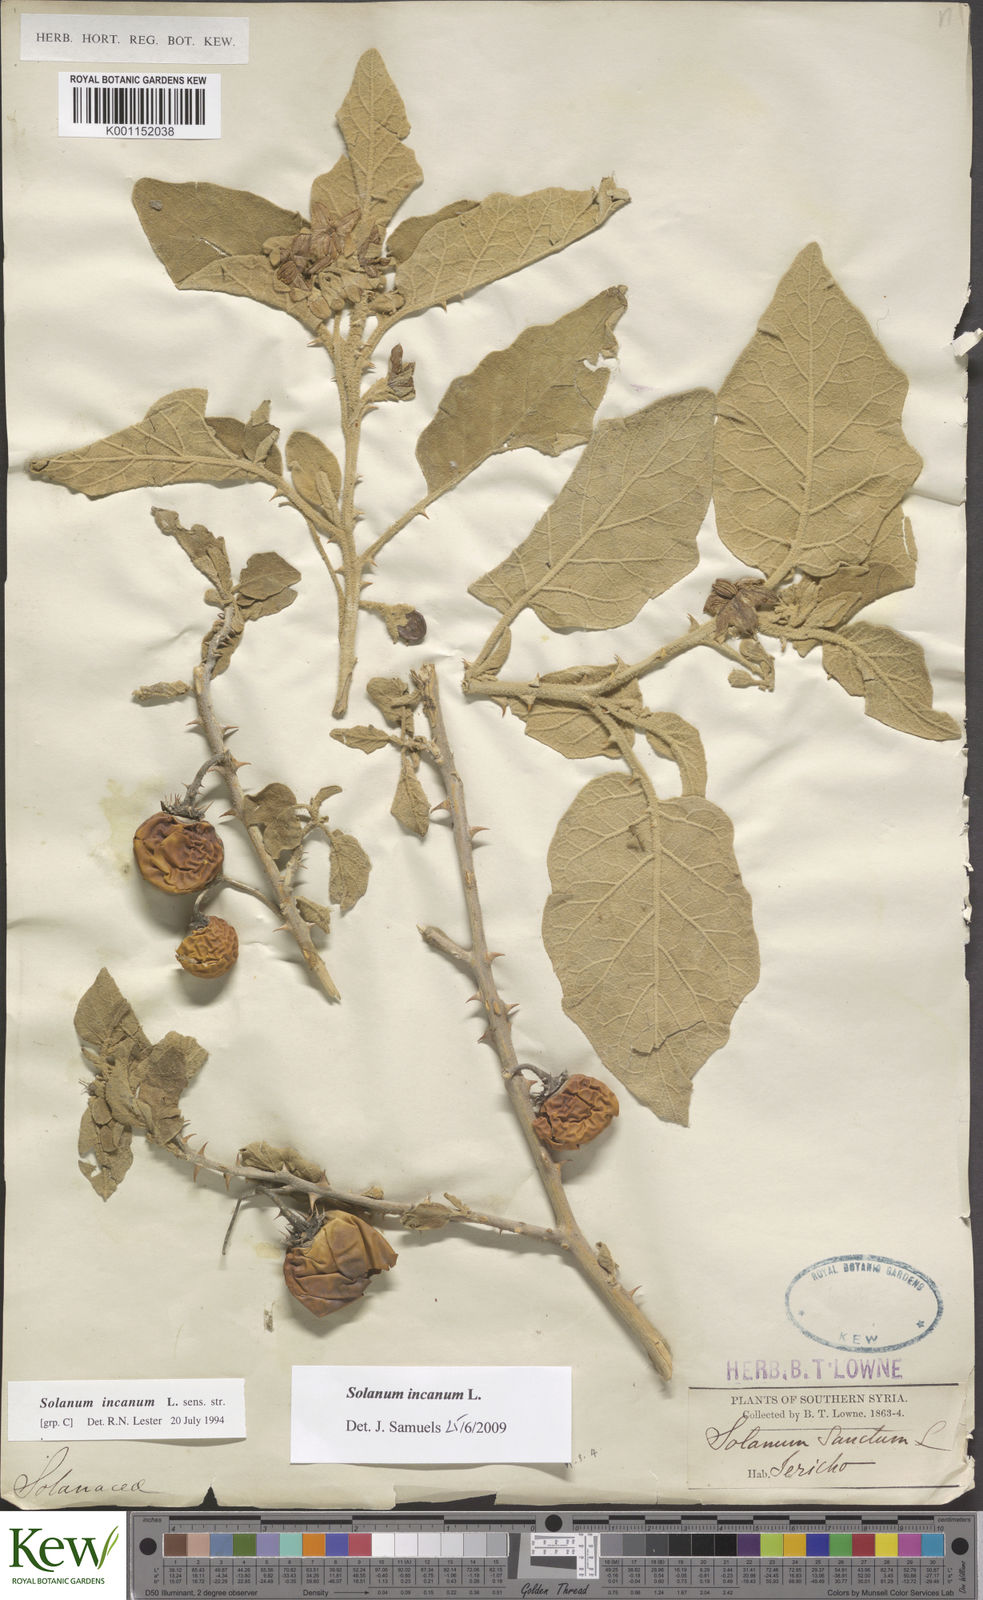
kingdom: Plantae
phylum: Tracheophyta
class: Magnoliopsida
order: Solanales
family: Solanaceae
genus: Solanum
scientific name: Solanum incanum
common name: Bitter apple
